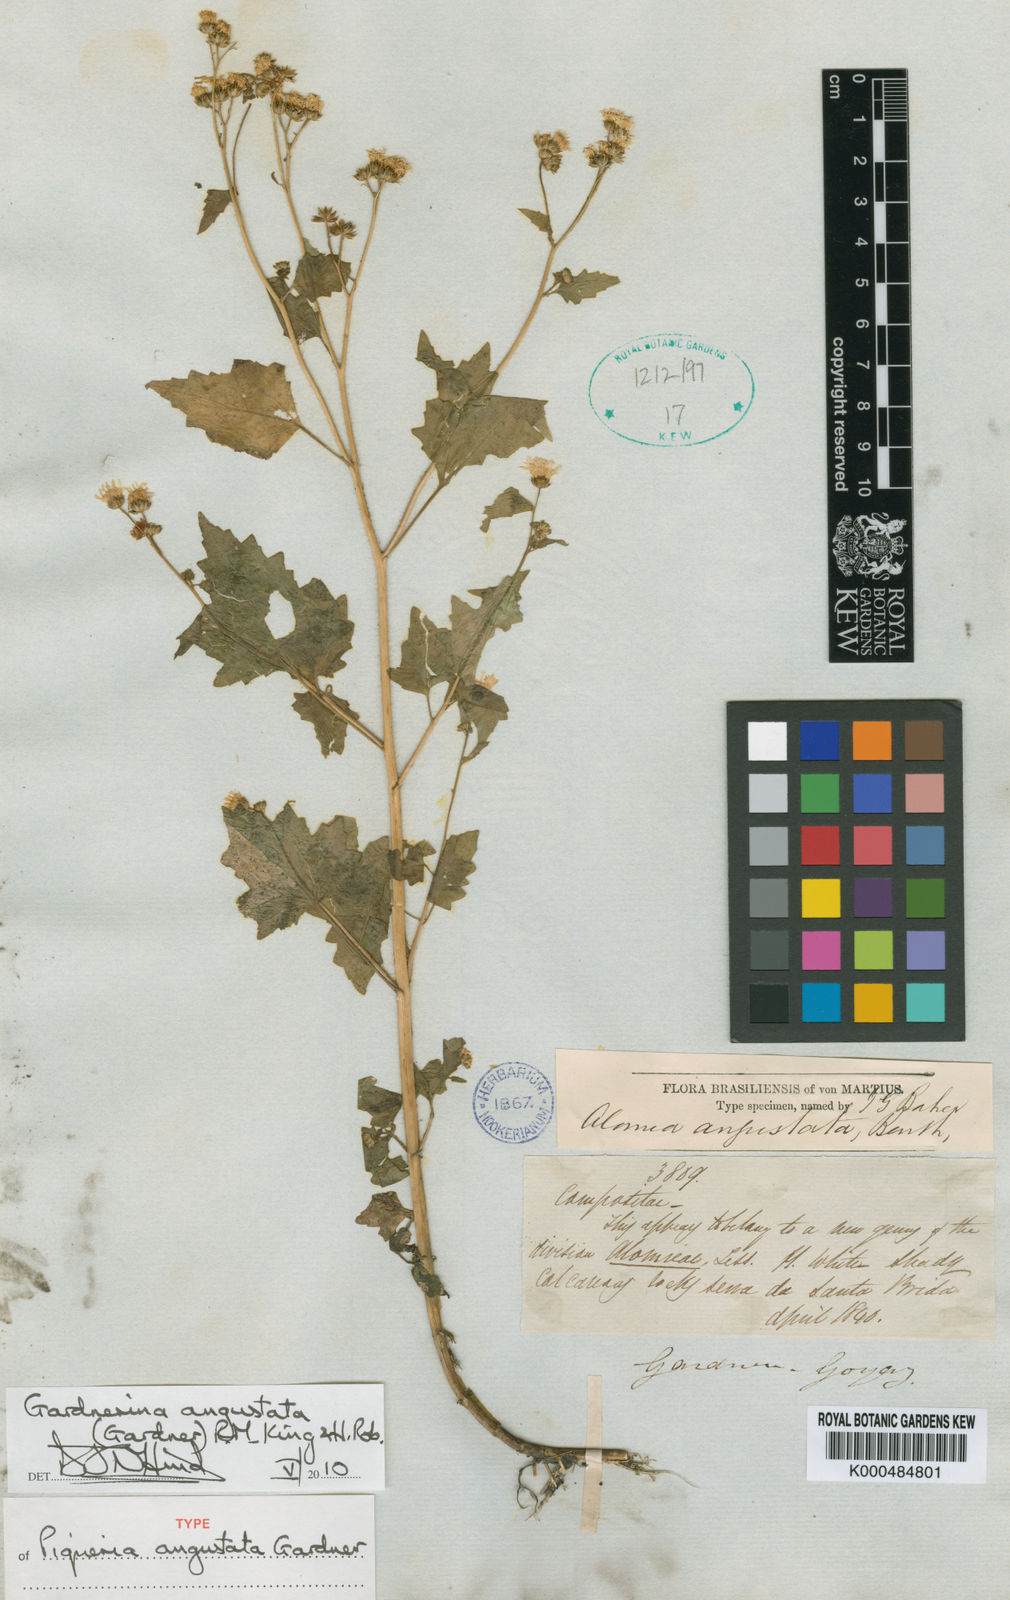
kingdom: Plantae
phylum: Tracheophyta
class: Magnoliopsida
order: Asterales
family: Asteraceae
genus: Gardnerina
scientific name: Gardnerina angustata
